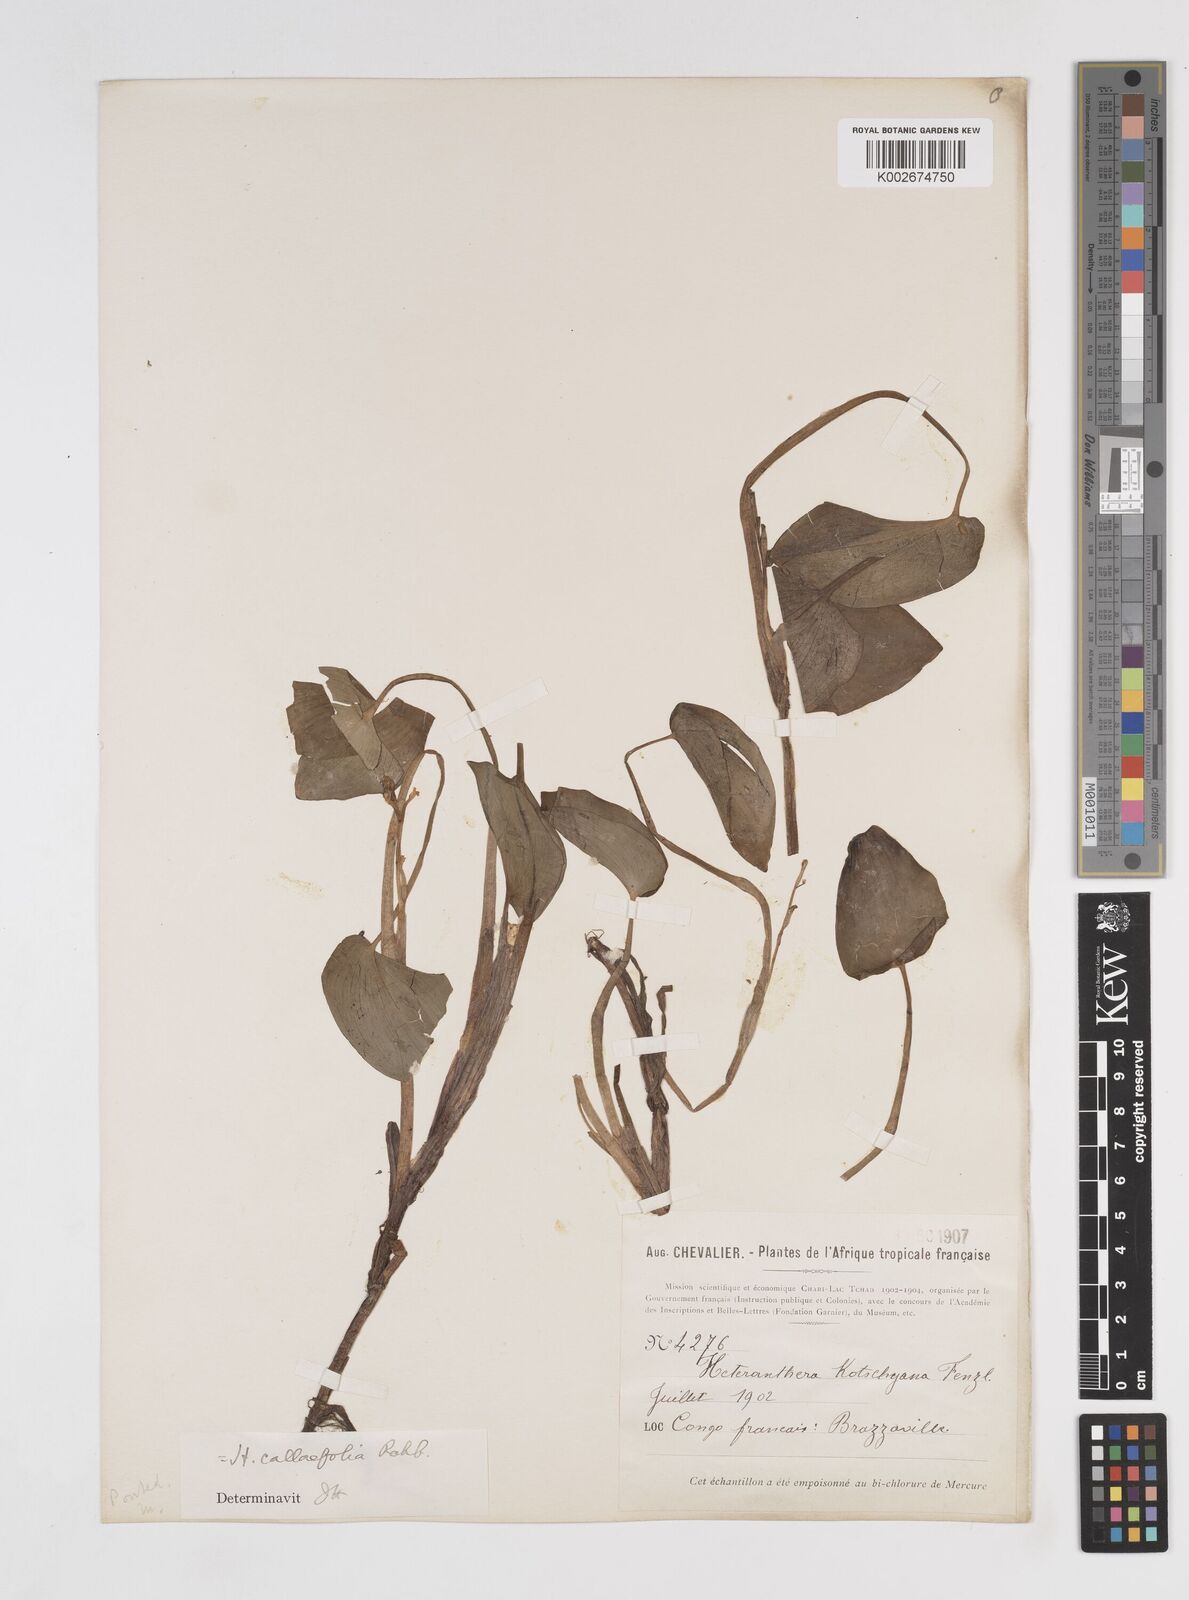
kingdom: Plantae
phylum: Tracheophyta
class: Liliopsida
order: Commelinales
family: Pontederiaceae
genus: Heteranthera
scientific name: Heteranthera callifolia
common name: Mud plantain
